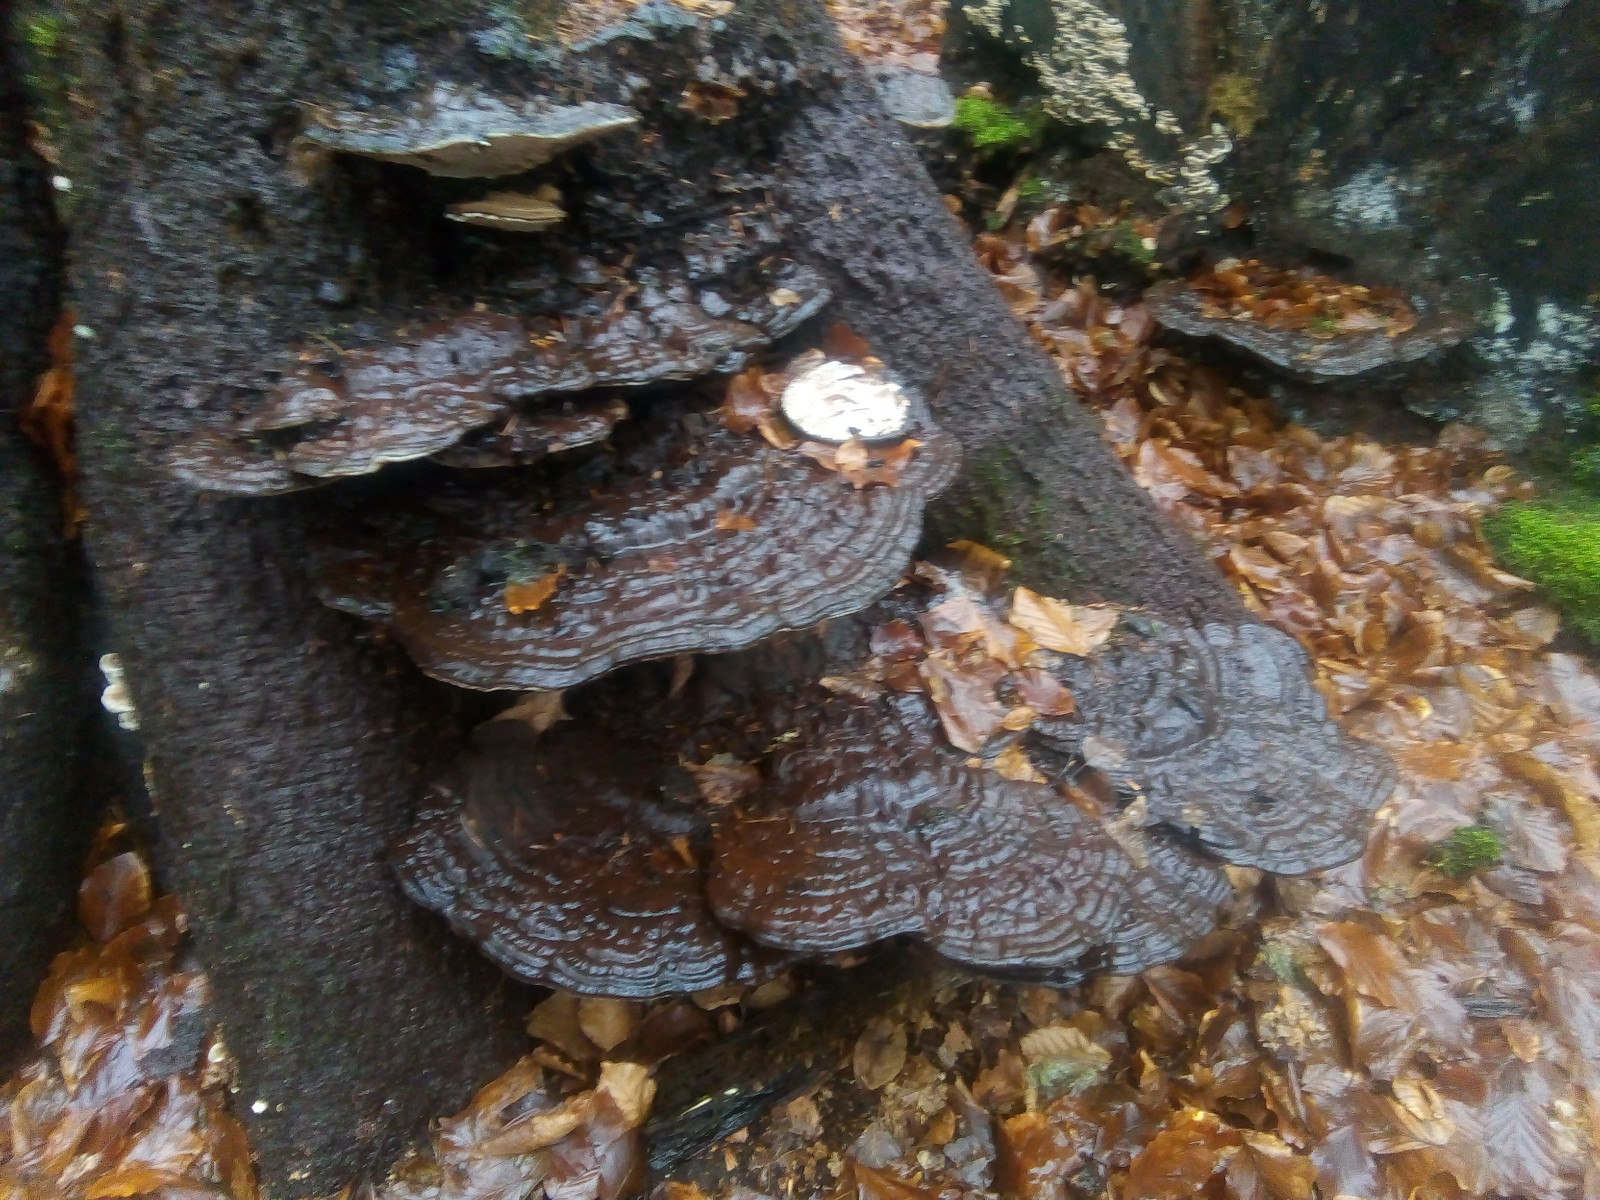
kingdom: Fungi
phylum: Basidiomycota
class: Agaricomycetes
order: Polyporales
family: Polyporaceae
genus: Ganoderma
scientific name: Ganoderma applanatum
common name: flad lakporesvamp
